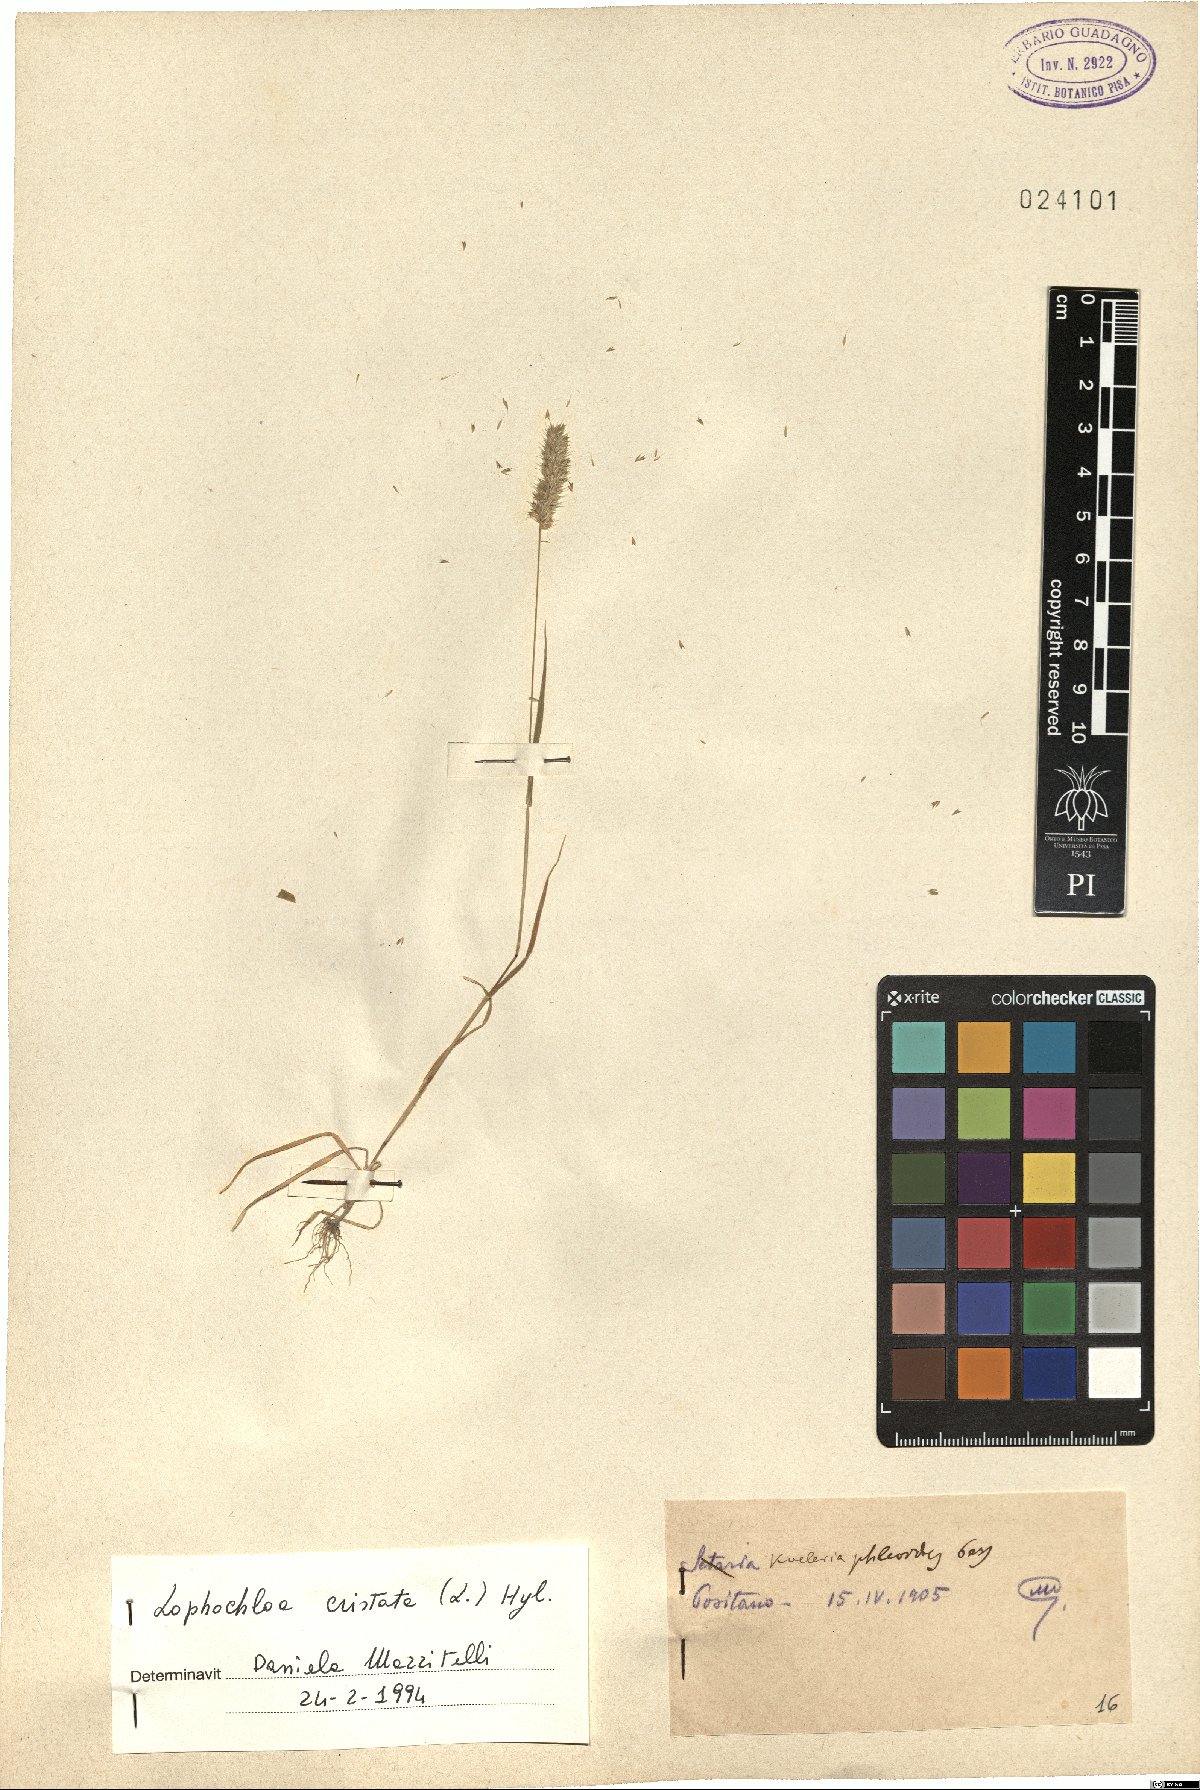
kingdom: Plantae
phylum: Tracheophyta
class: Liliopsida
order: Poales
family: Poaceae
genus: Rostraria
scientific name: Rostraria cristata
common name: Mediterranean hair-grass
